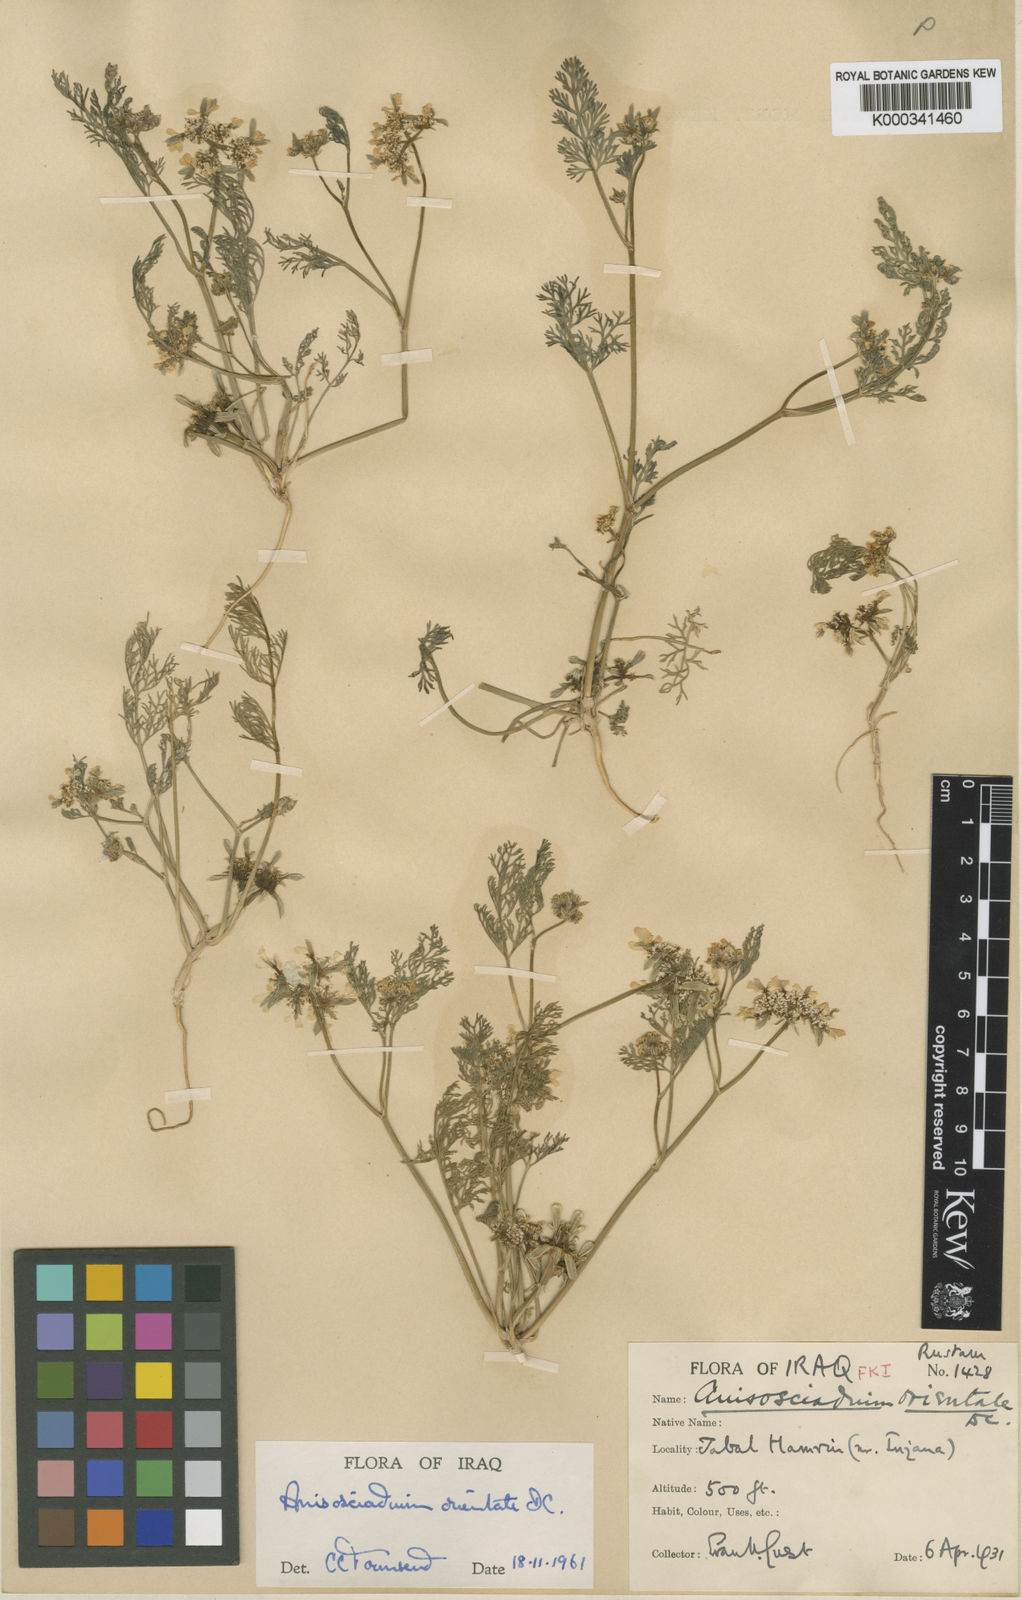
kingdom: Plantae
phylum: Tracheophyta
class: Magnoliopsida
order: Apiales
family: Apiaceae
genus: Anisosciadium
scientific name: Anisosciadium orientale
